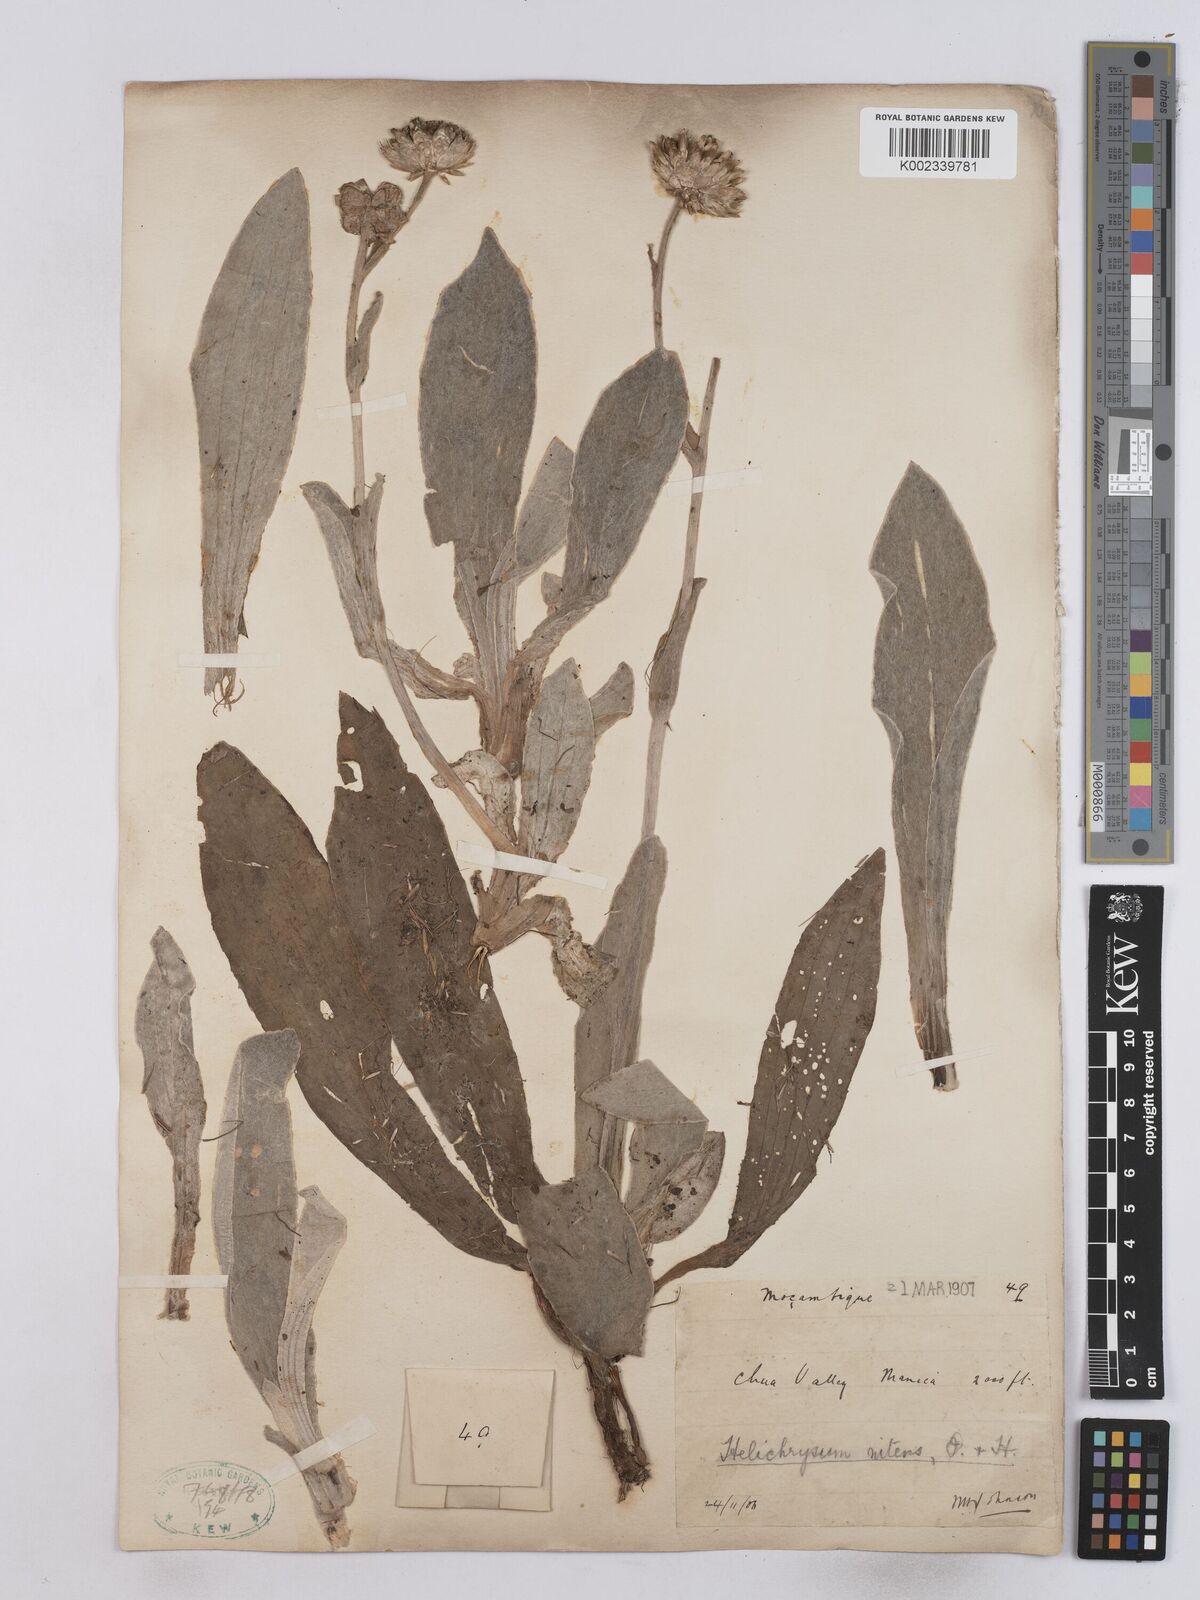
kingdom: Plantae
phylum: Tracheophyta
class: Magnoliopsida
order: Asterales
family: Asteraceae
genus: Helichrysum
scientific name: Helichrysum nitens
